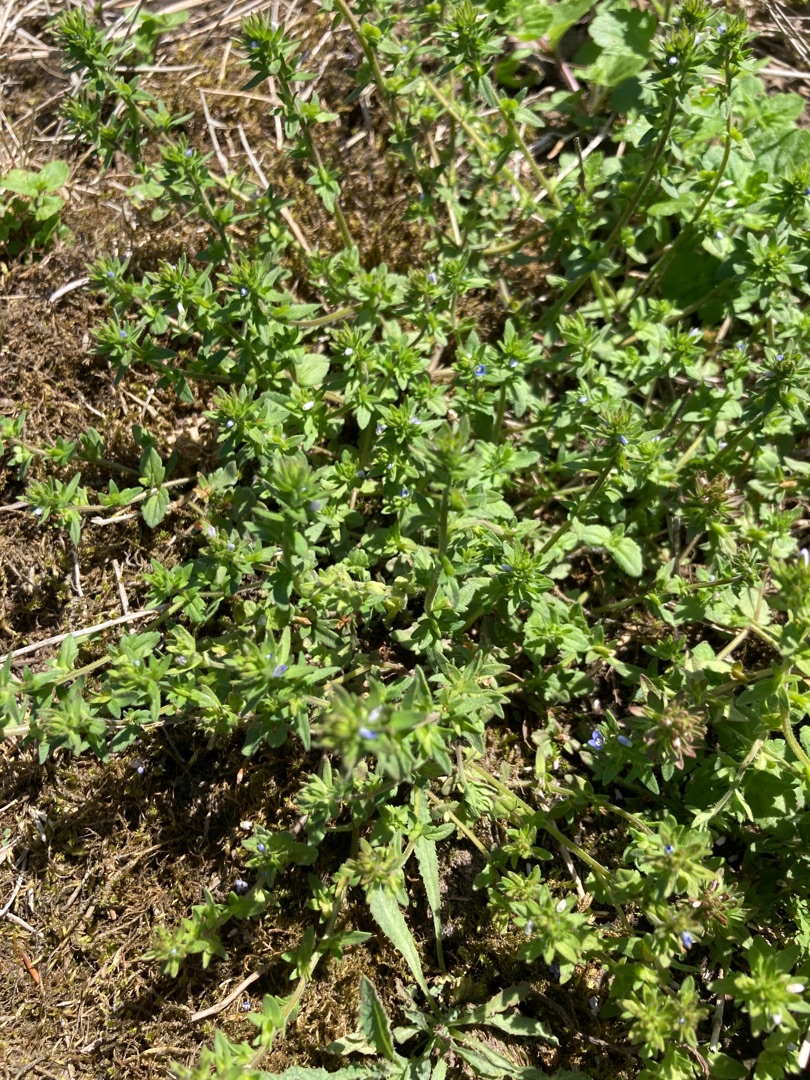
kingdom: Plantae
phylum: Tracheophyta
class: Magnoliopsida
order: Lamiales
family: Plantaginaceae
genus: Veronica
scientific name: Veronica arvensis
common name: Mark-ærenpris
